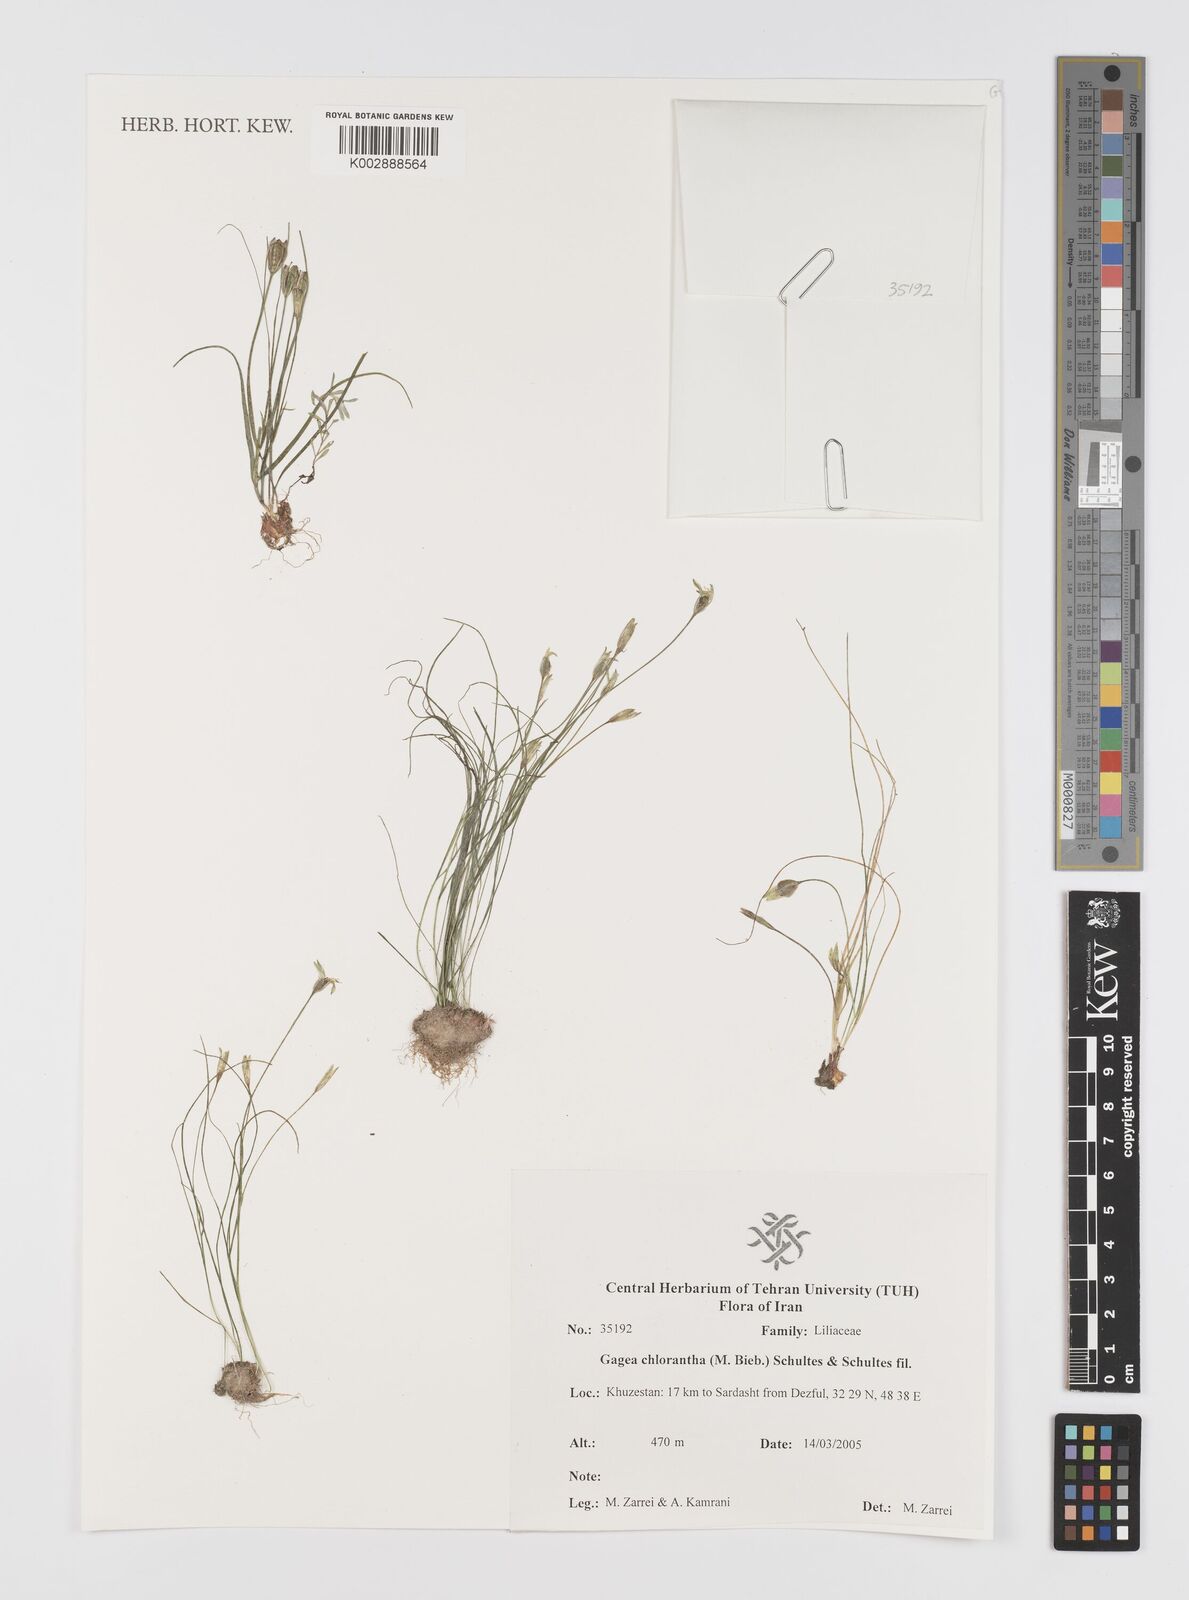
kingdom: Plantae
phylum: Tracheophyta
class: Liliopsida
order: Liliales
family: Liliaceae
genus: Gagea
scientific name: Gagea chlorantha
